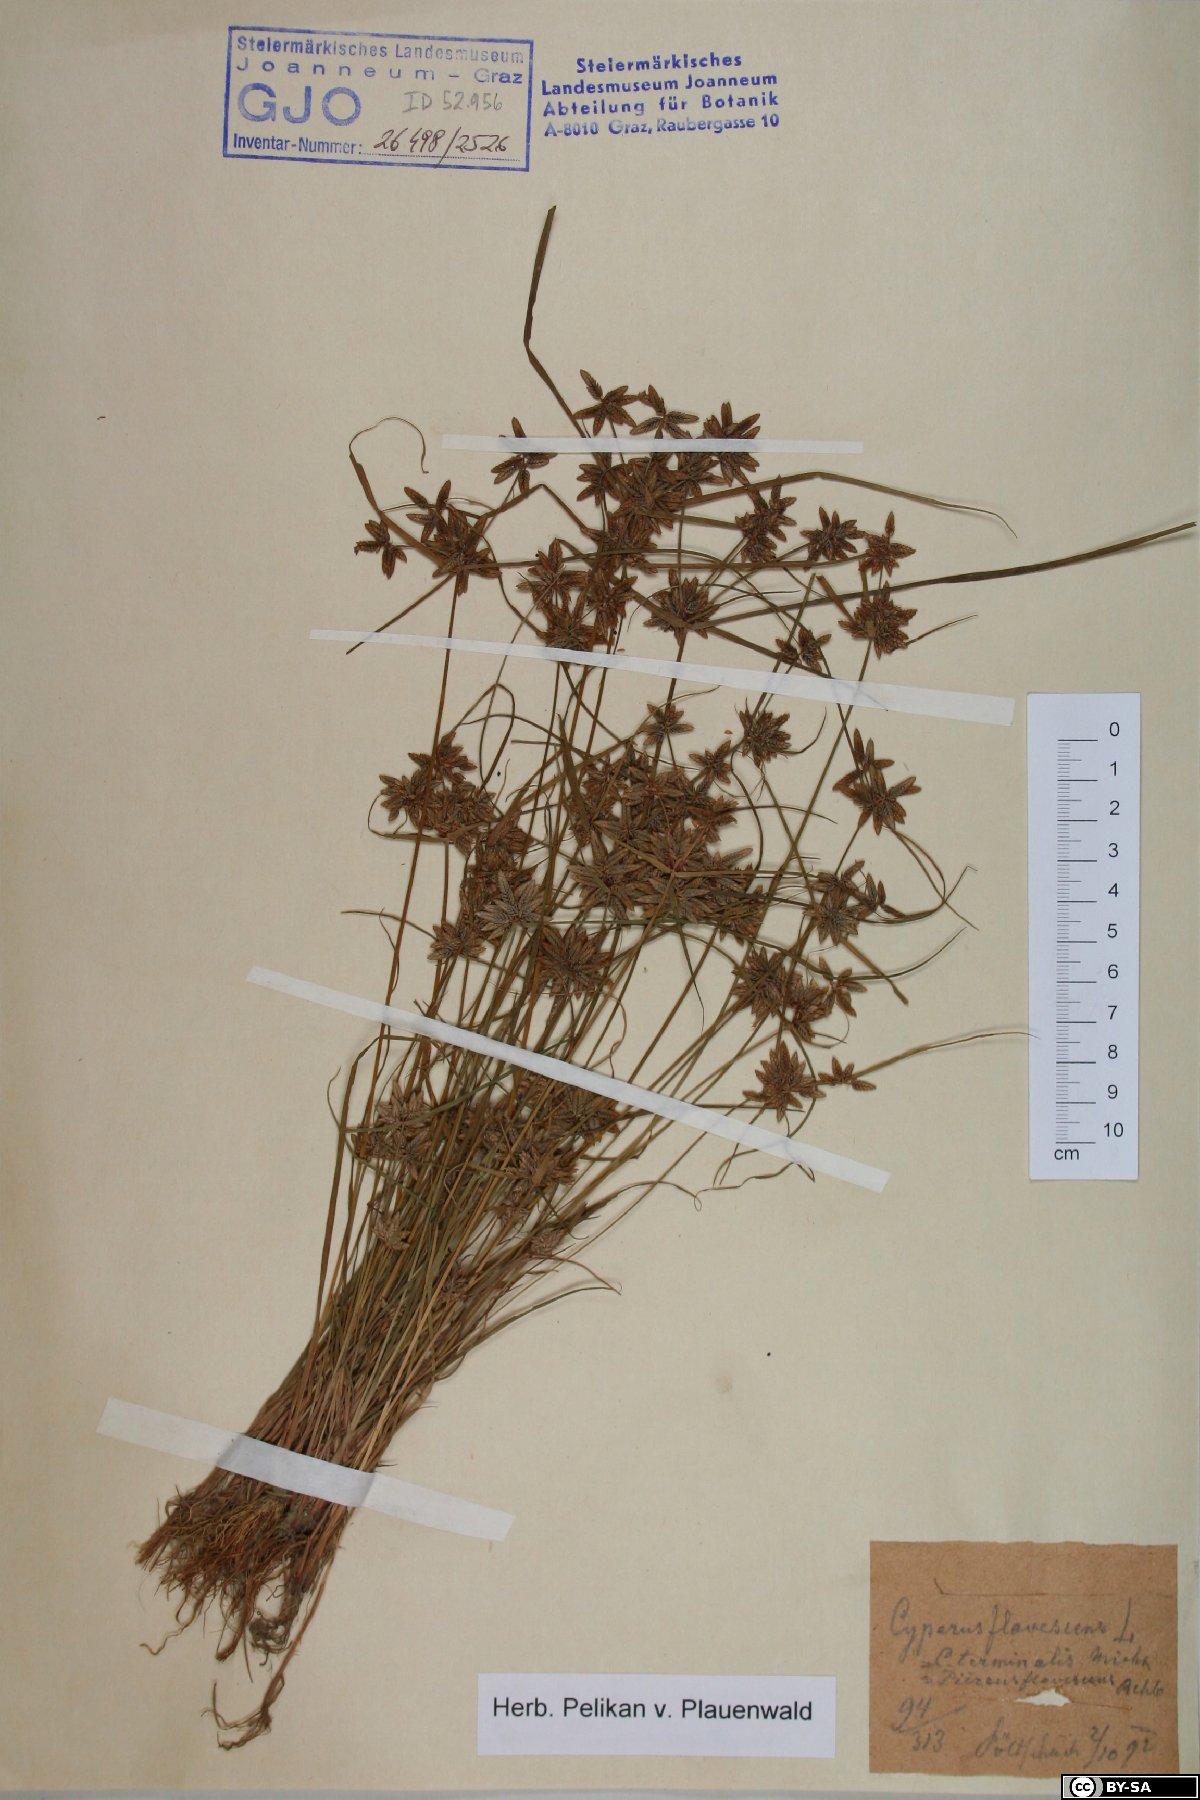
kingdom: Plantae
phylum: Tracheophyta
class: Liliopsida
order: Poales
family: Cyperaceae
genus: Cyperus
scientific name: Cyperus flavescens
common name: Yellow galingale
